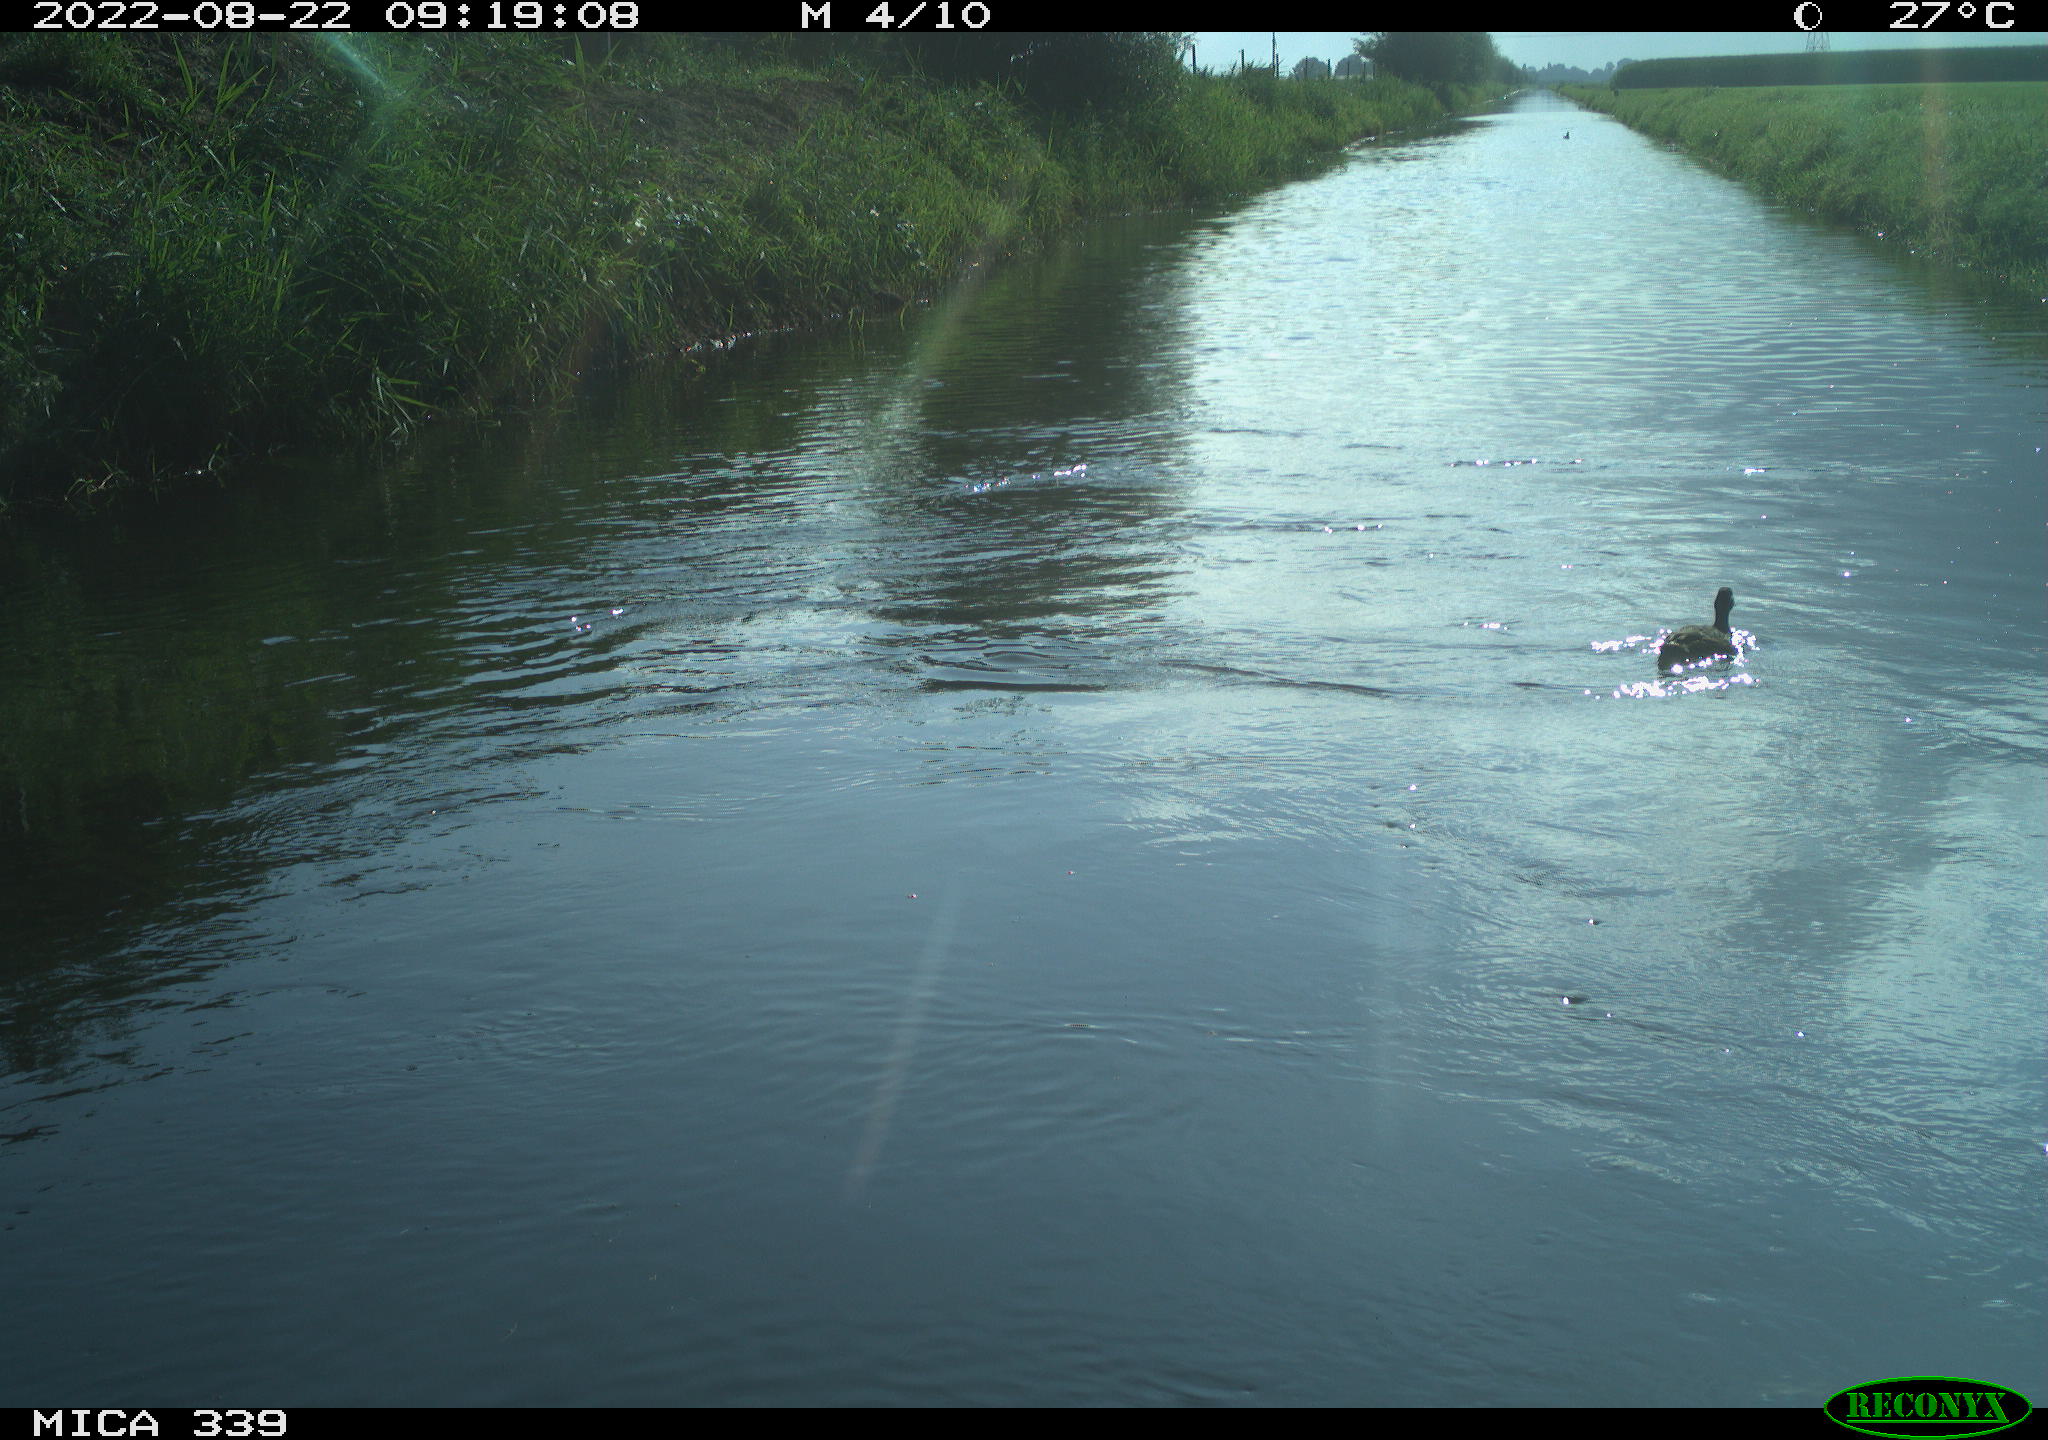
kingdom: Animalia
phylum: Chordata
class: Aves
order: Anseriformes
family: Anatidae
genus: Anas
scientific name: Anas platyrhynchos
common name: Mallard
